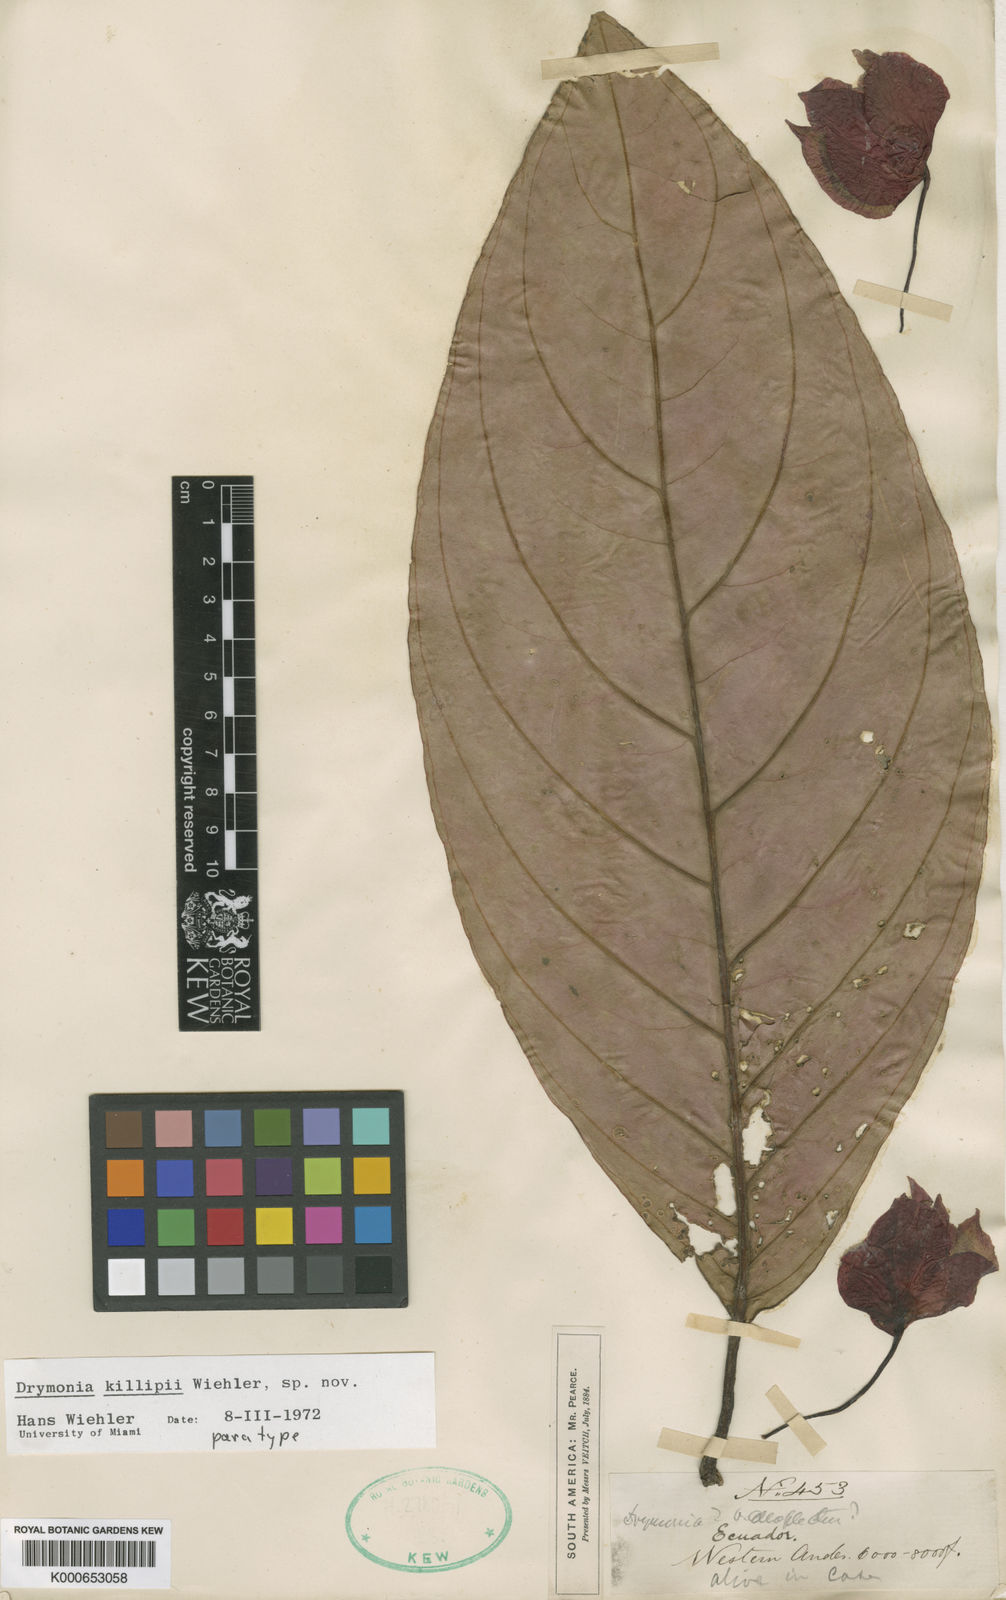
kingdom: Plantae
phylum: Tracheophyta
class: Magnoliopsida
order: Lamiales
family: Gesneriaceae
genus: Drymonia
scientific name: Drymonia killipii
